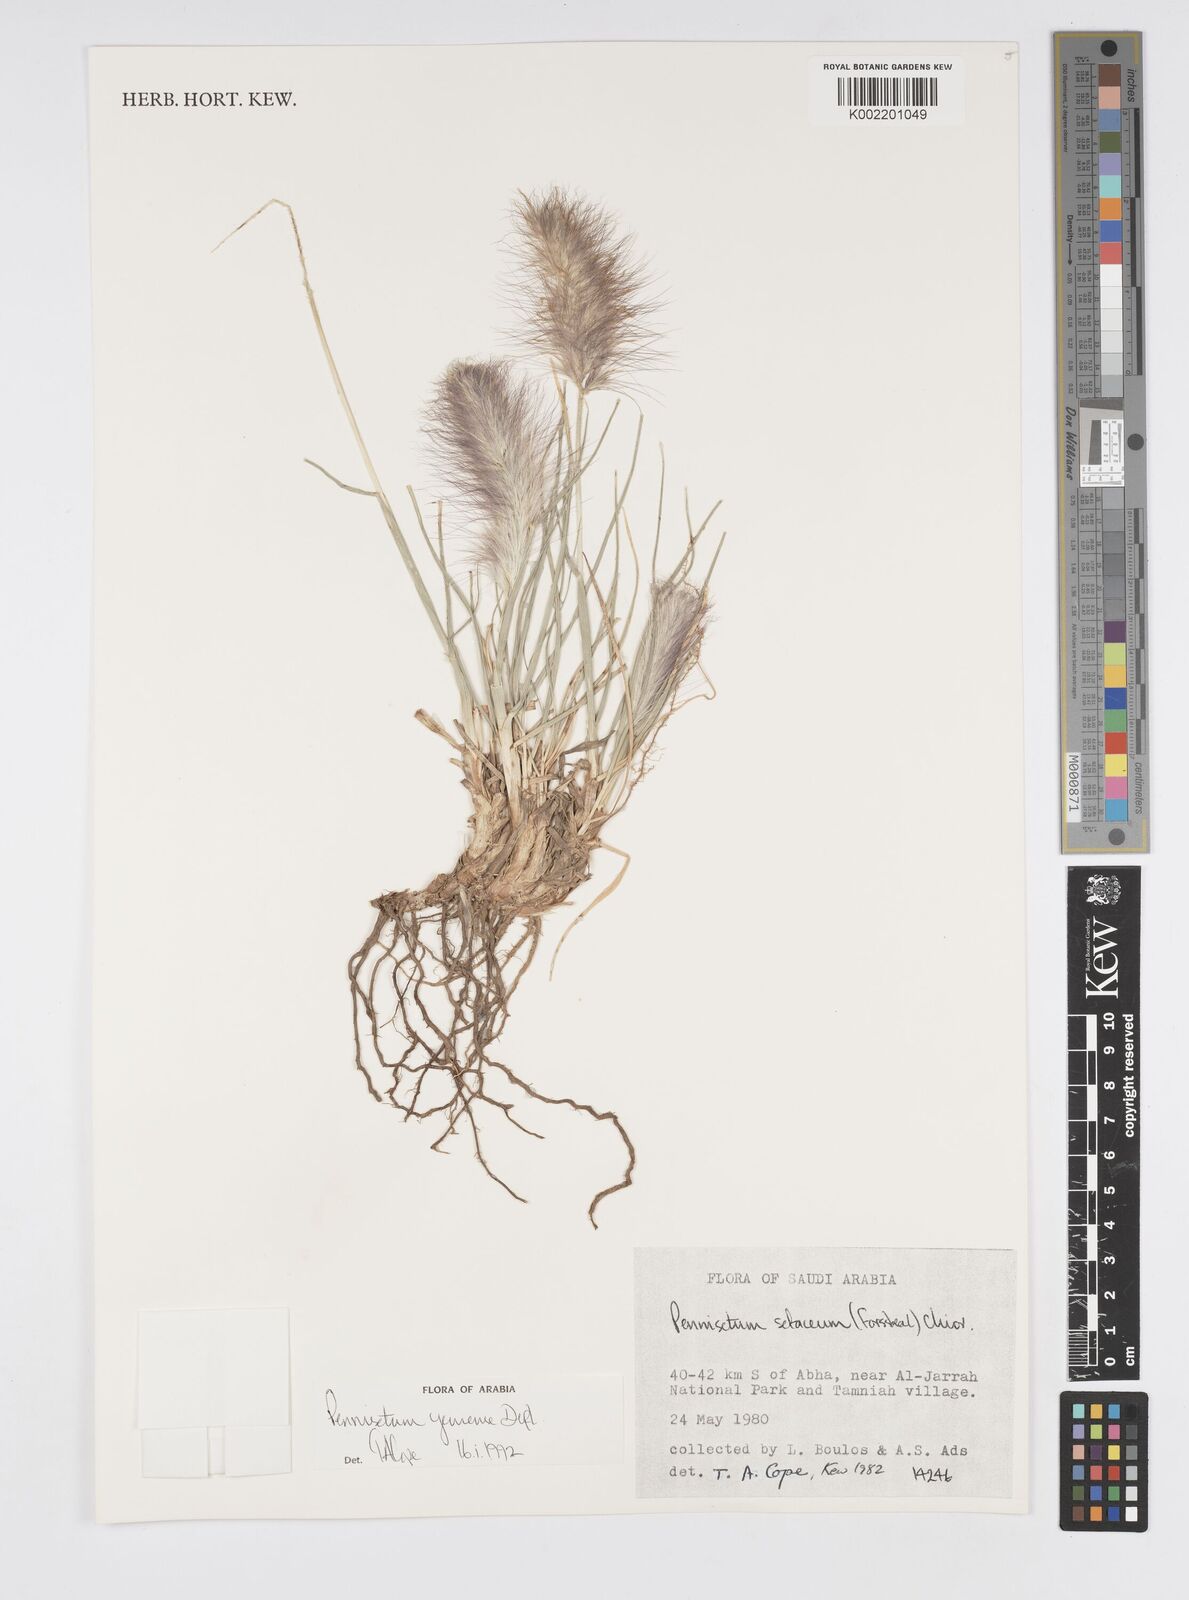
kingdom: Plantae
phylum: Tracheophyta
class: Liliopsida
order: Poales
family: Poaceae
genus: Cenchrus
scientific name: Cenchrus yemensis
